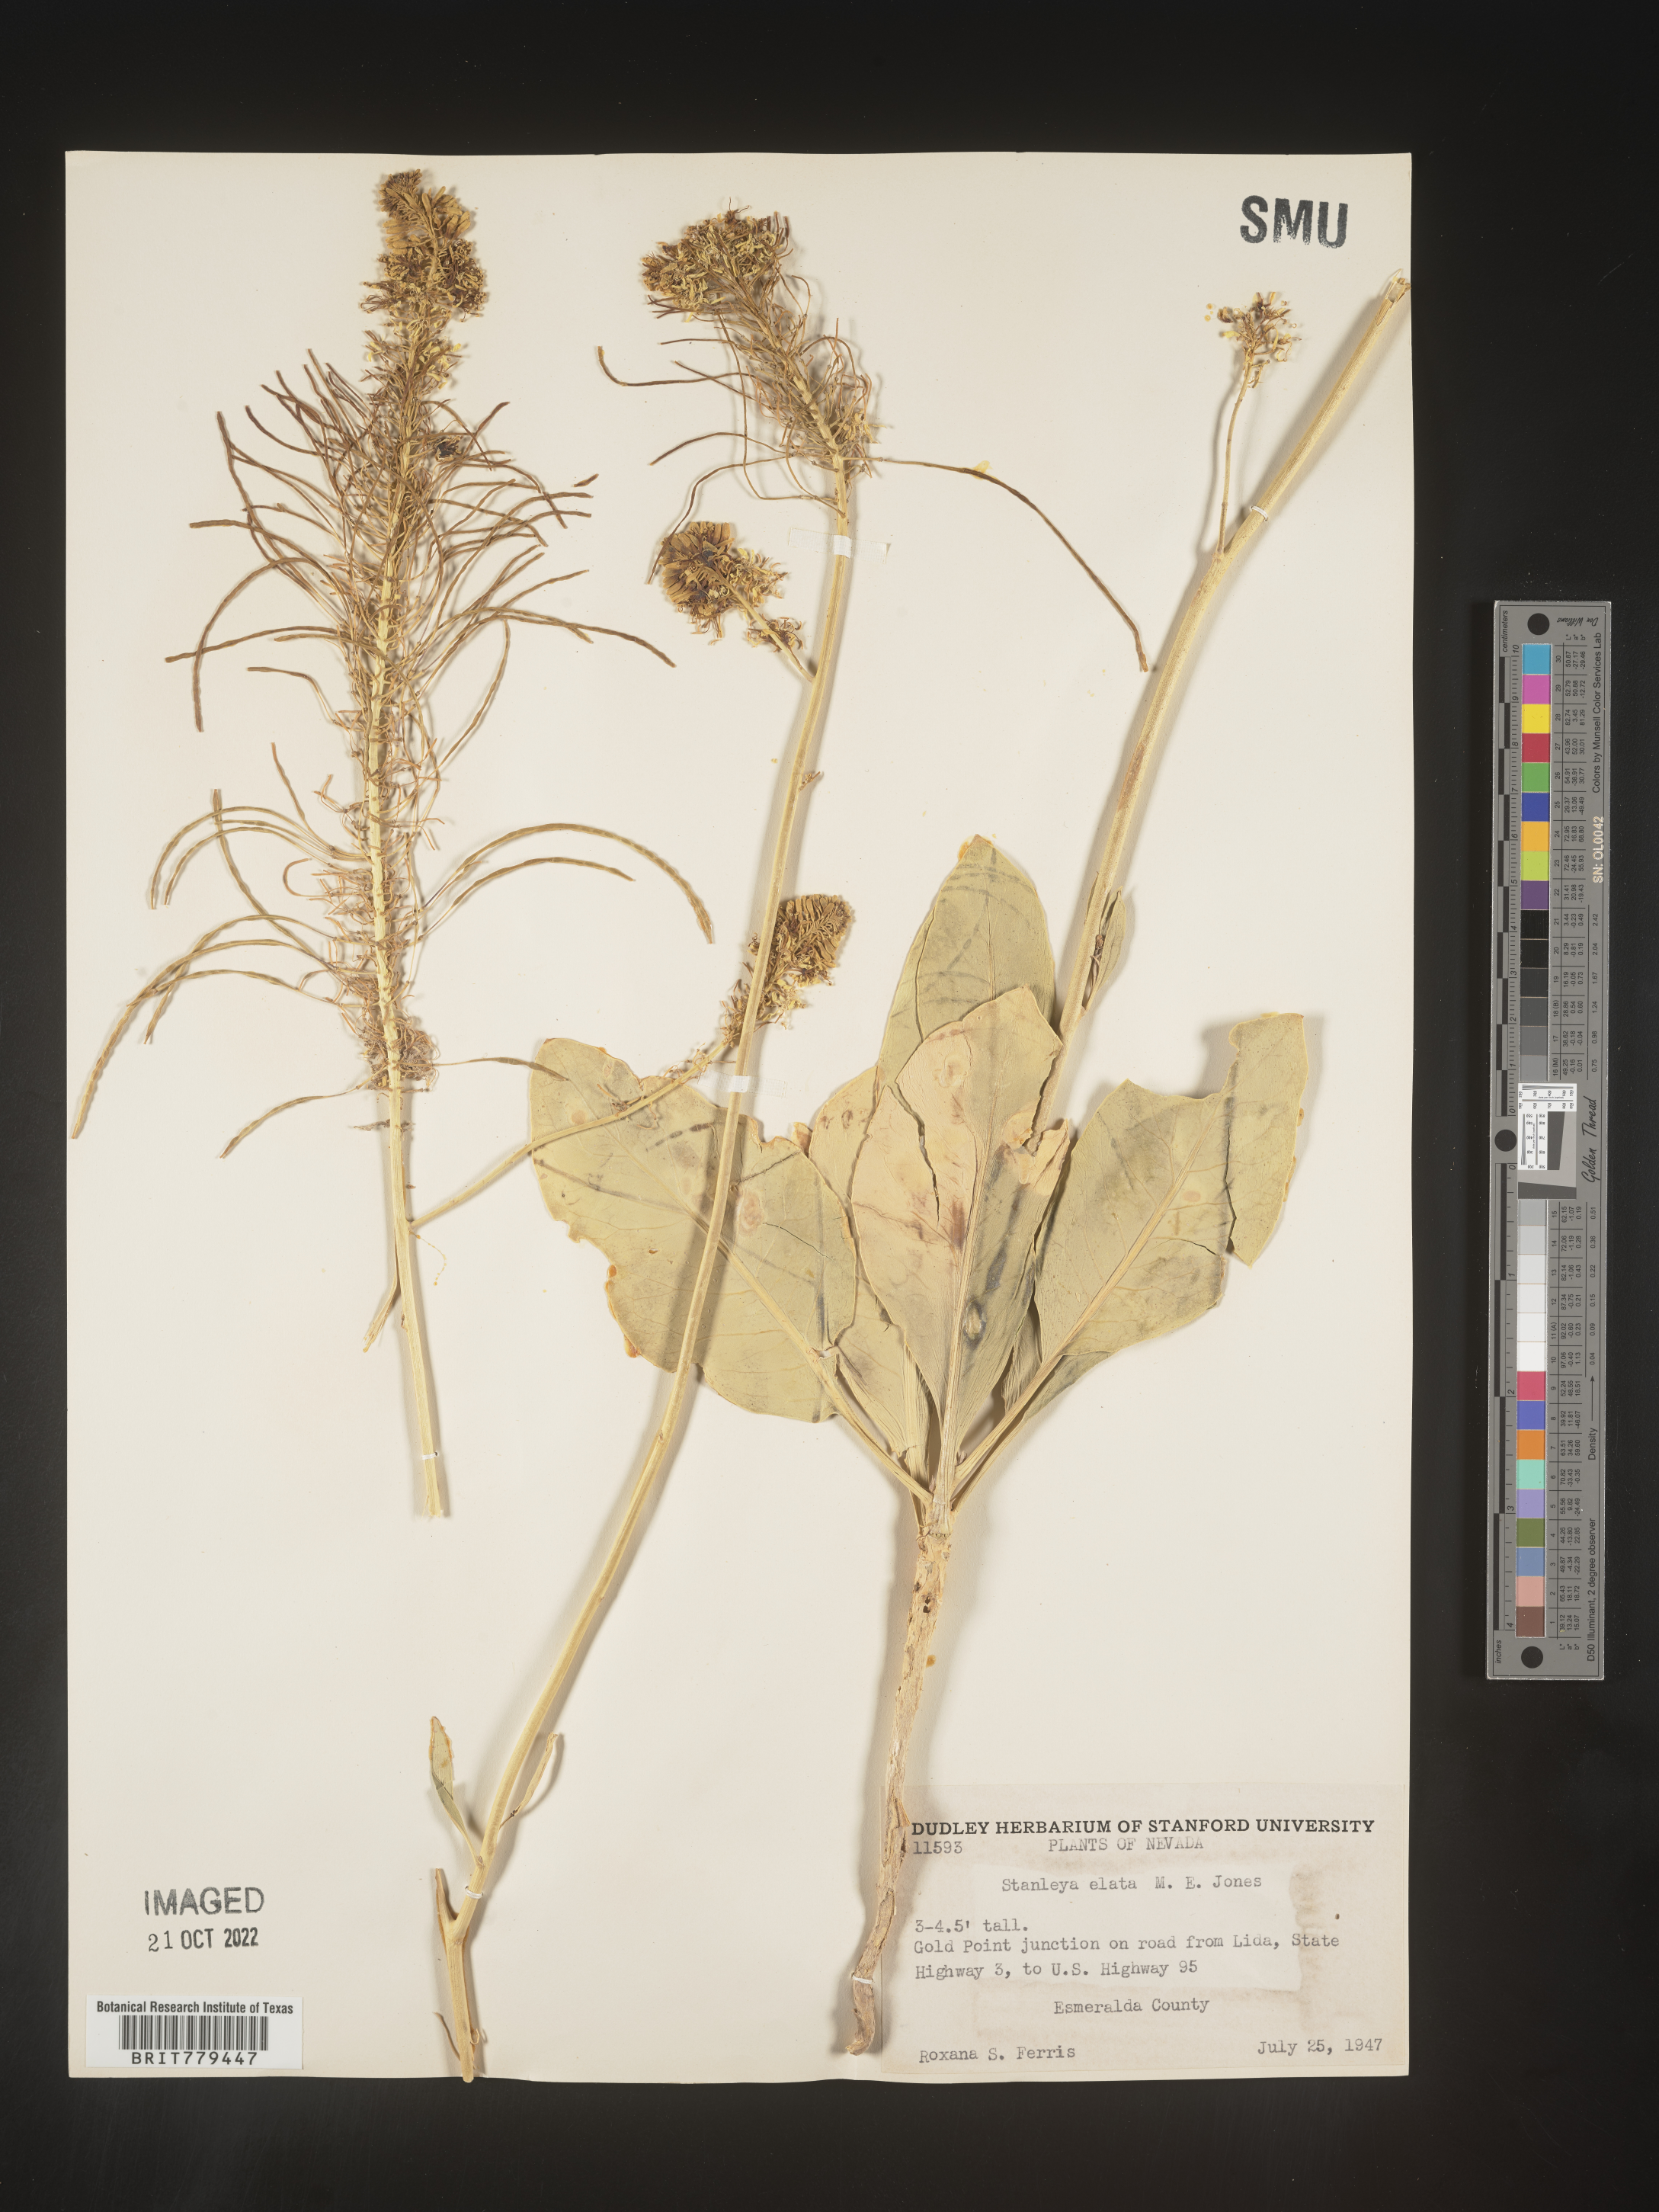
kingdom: Plantae
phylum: Tracheophyta
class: Magnoliopsida
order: Brassicales
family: Brassicaceae
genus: Stanleya
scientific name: Stanleya
